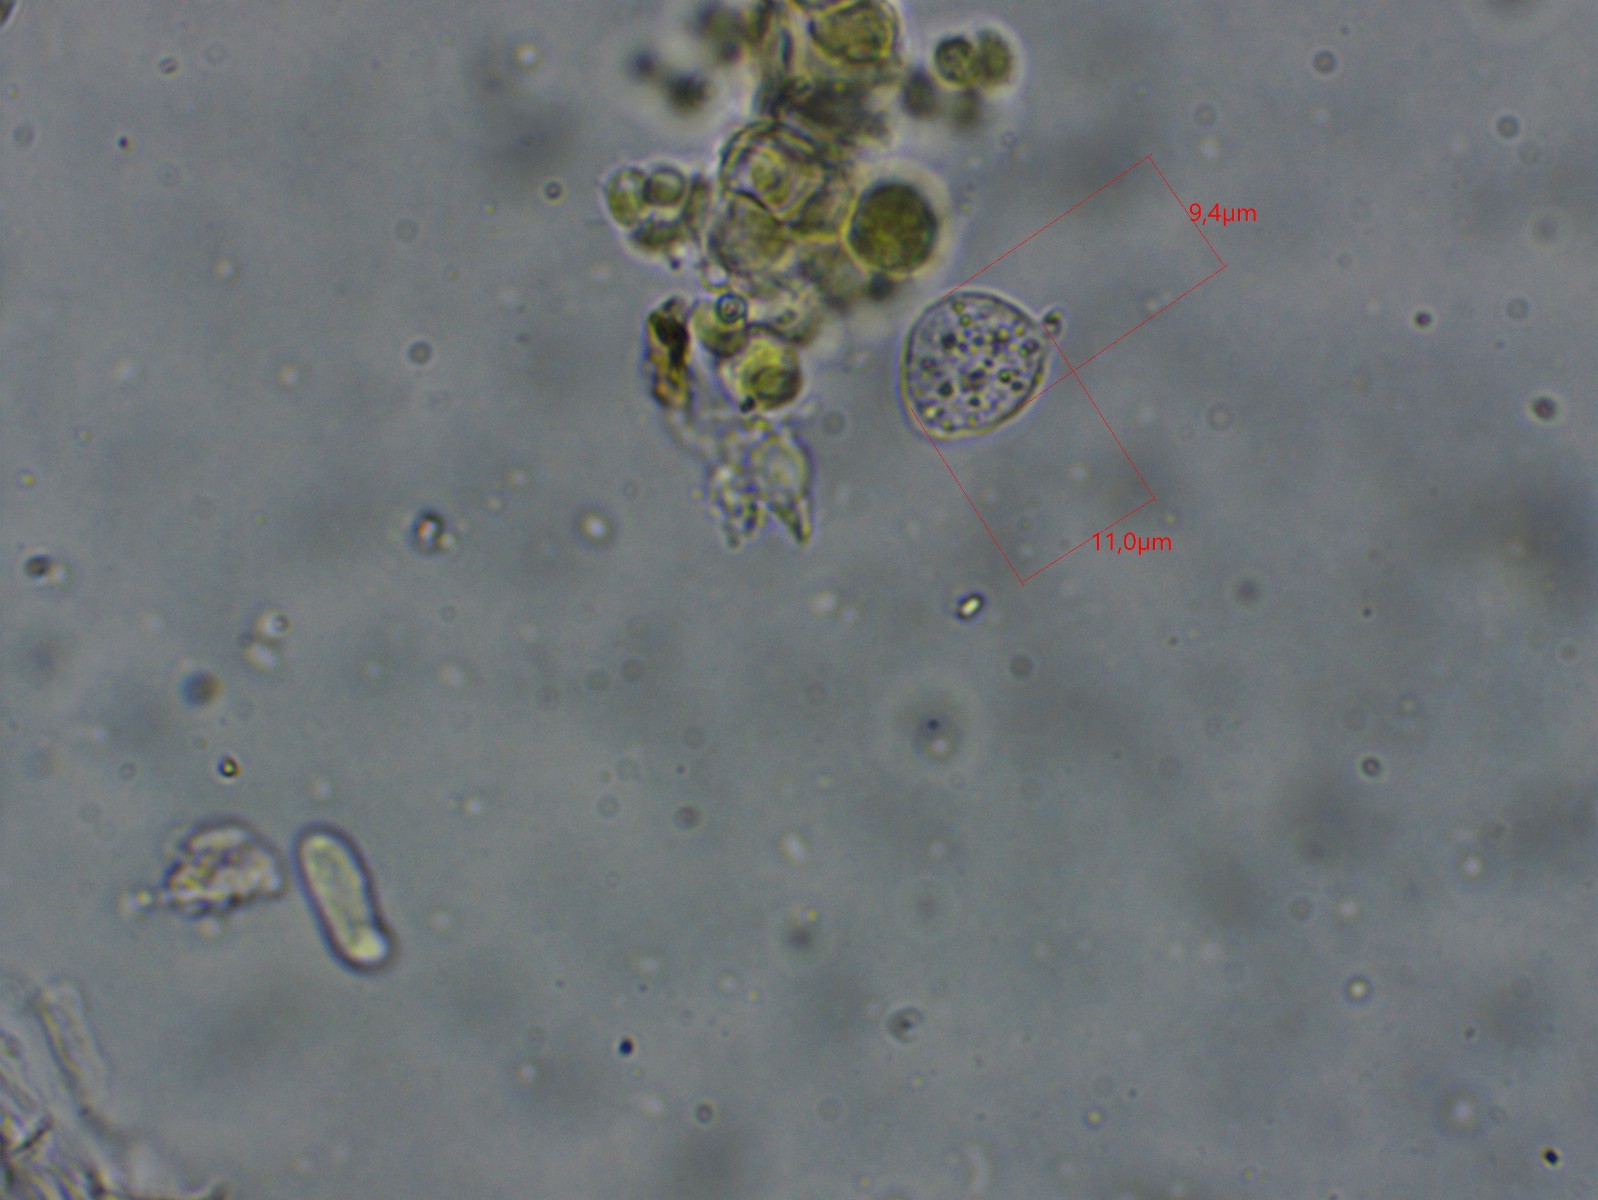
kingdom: Fungi
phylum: Basidiomycota
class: Agaricomycetes
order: Agaricales
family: Niaceae
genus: Lachnella
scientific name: Lachnella alboviolascens
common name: grå frynserede
